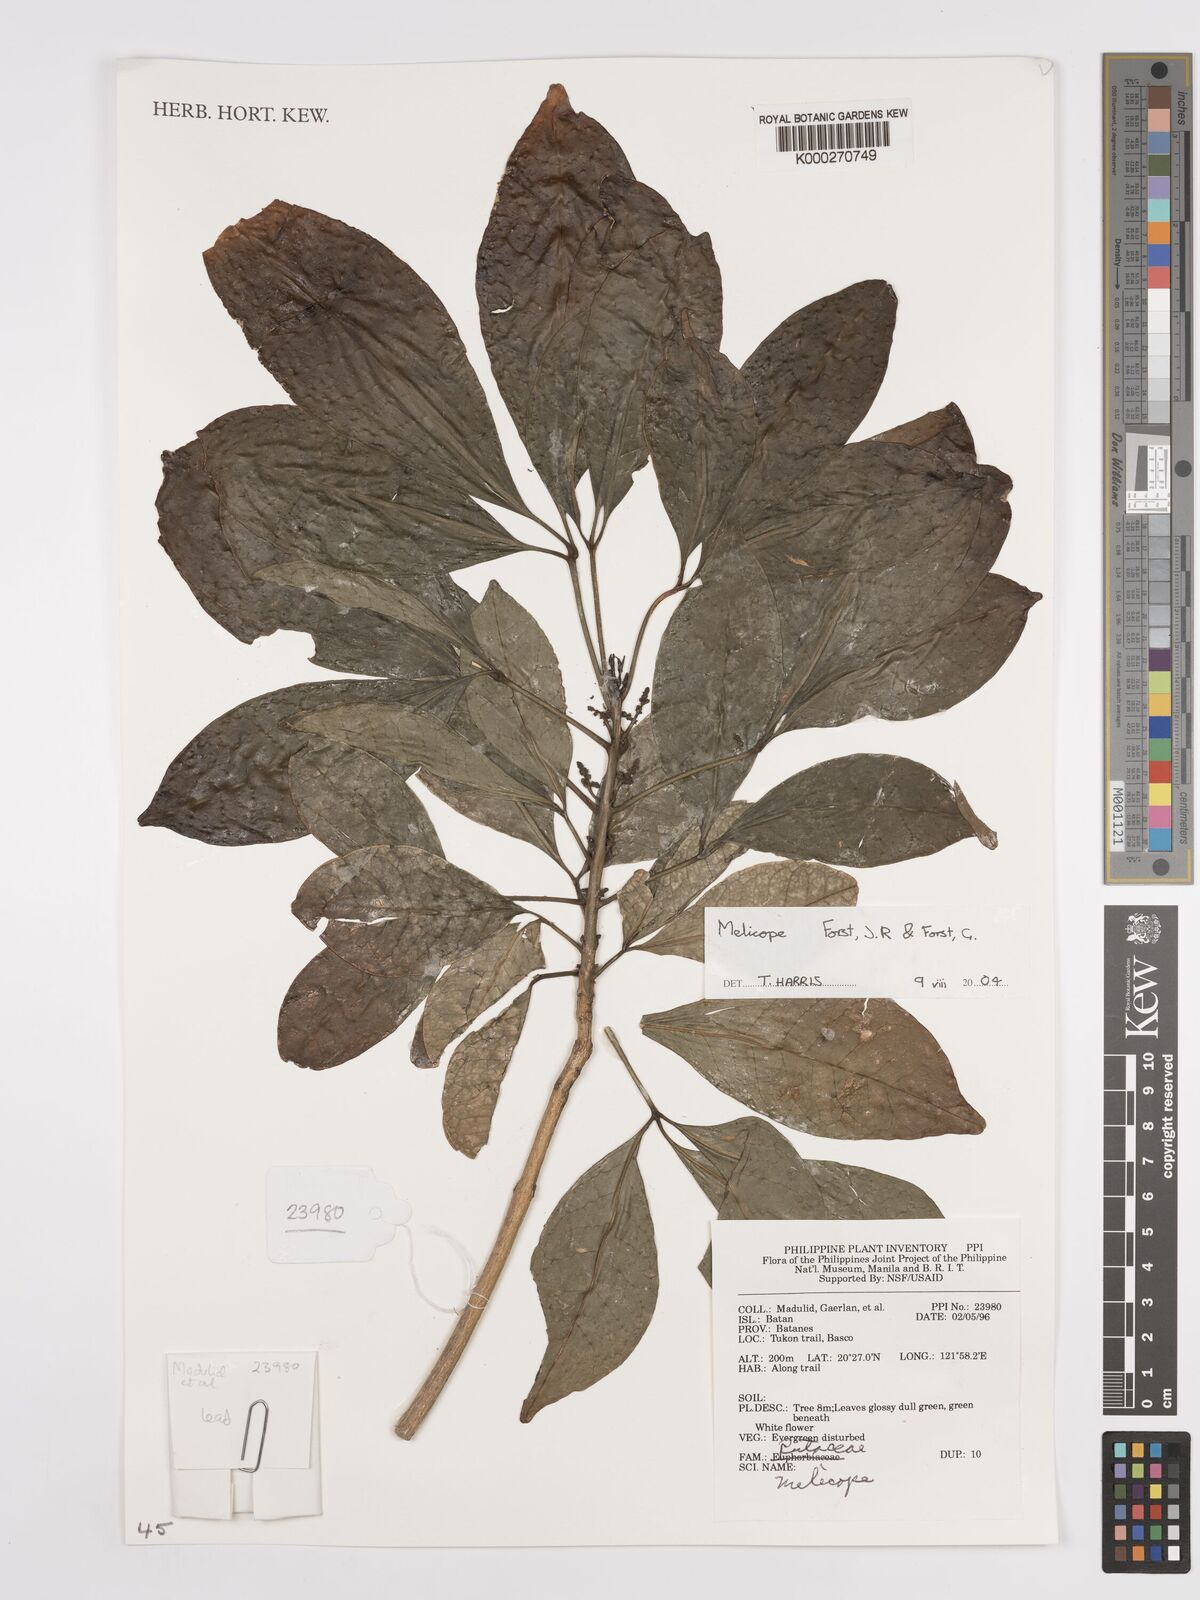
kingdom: Plantae
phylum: Tracheophyta
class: Magnoliopsida
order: Sapindales
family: Rutaceae
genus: Melicope
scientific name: Melicope
